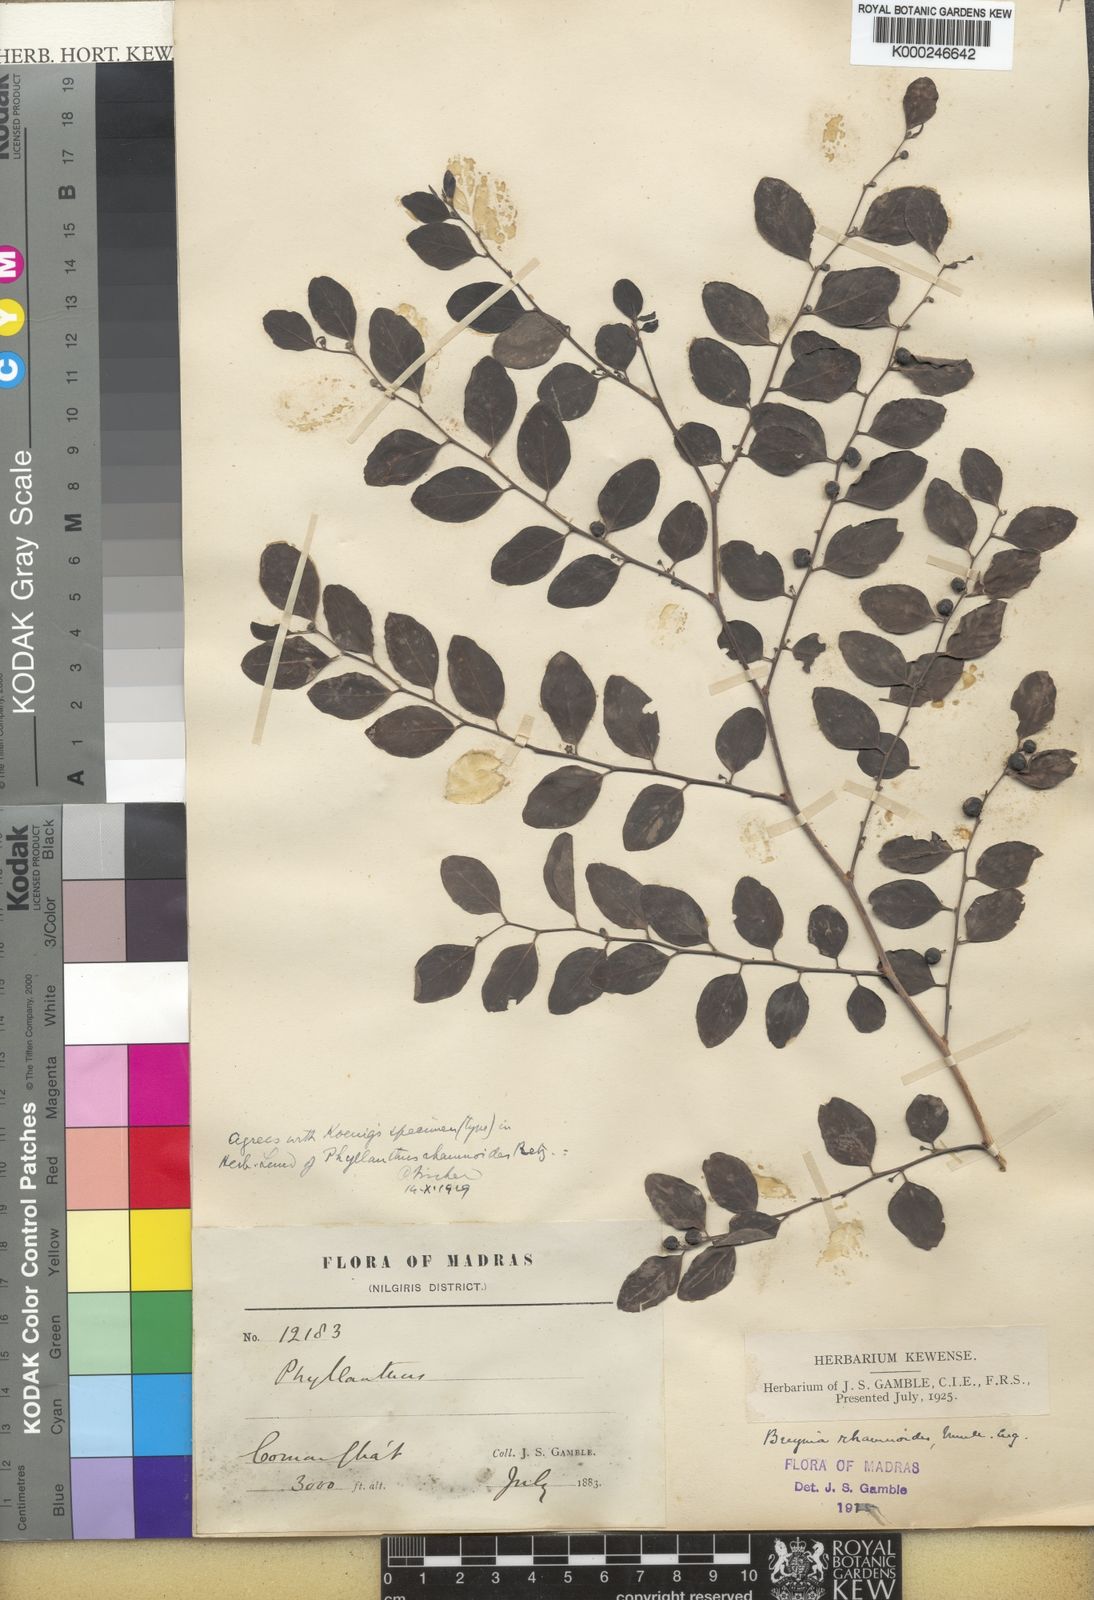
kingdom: Plantae
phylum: Tracheophyta
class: Magnoliopsida
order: Malpighiales
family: Phyllanthaceae
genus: Breynia
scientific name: Breynia vitis-idaea
